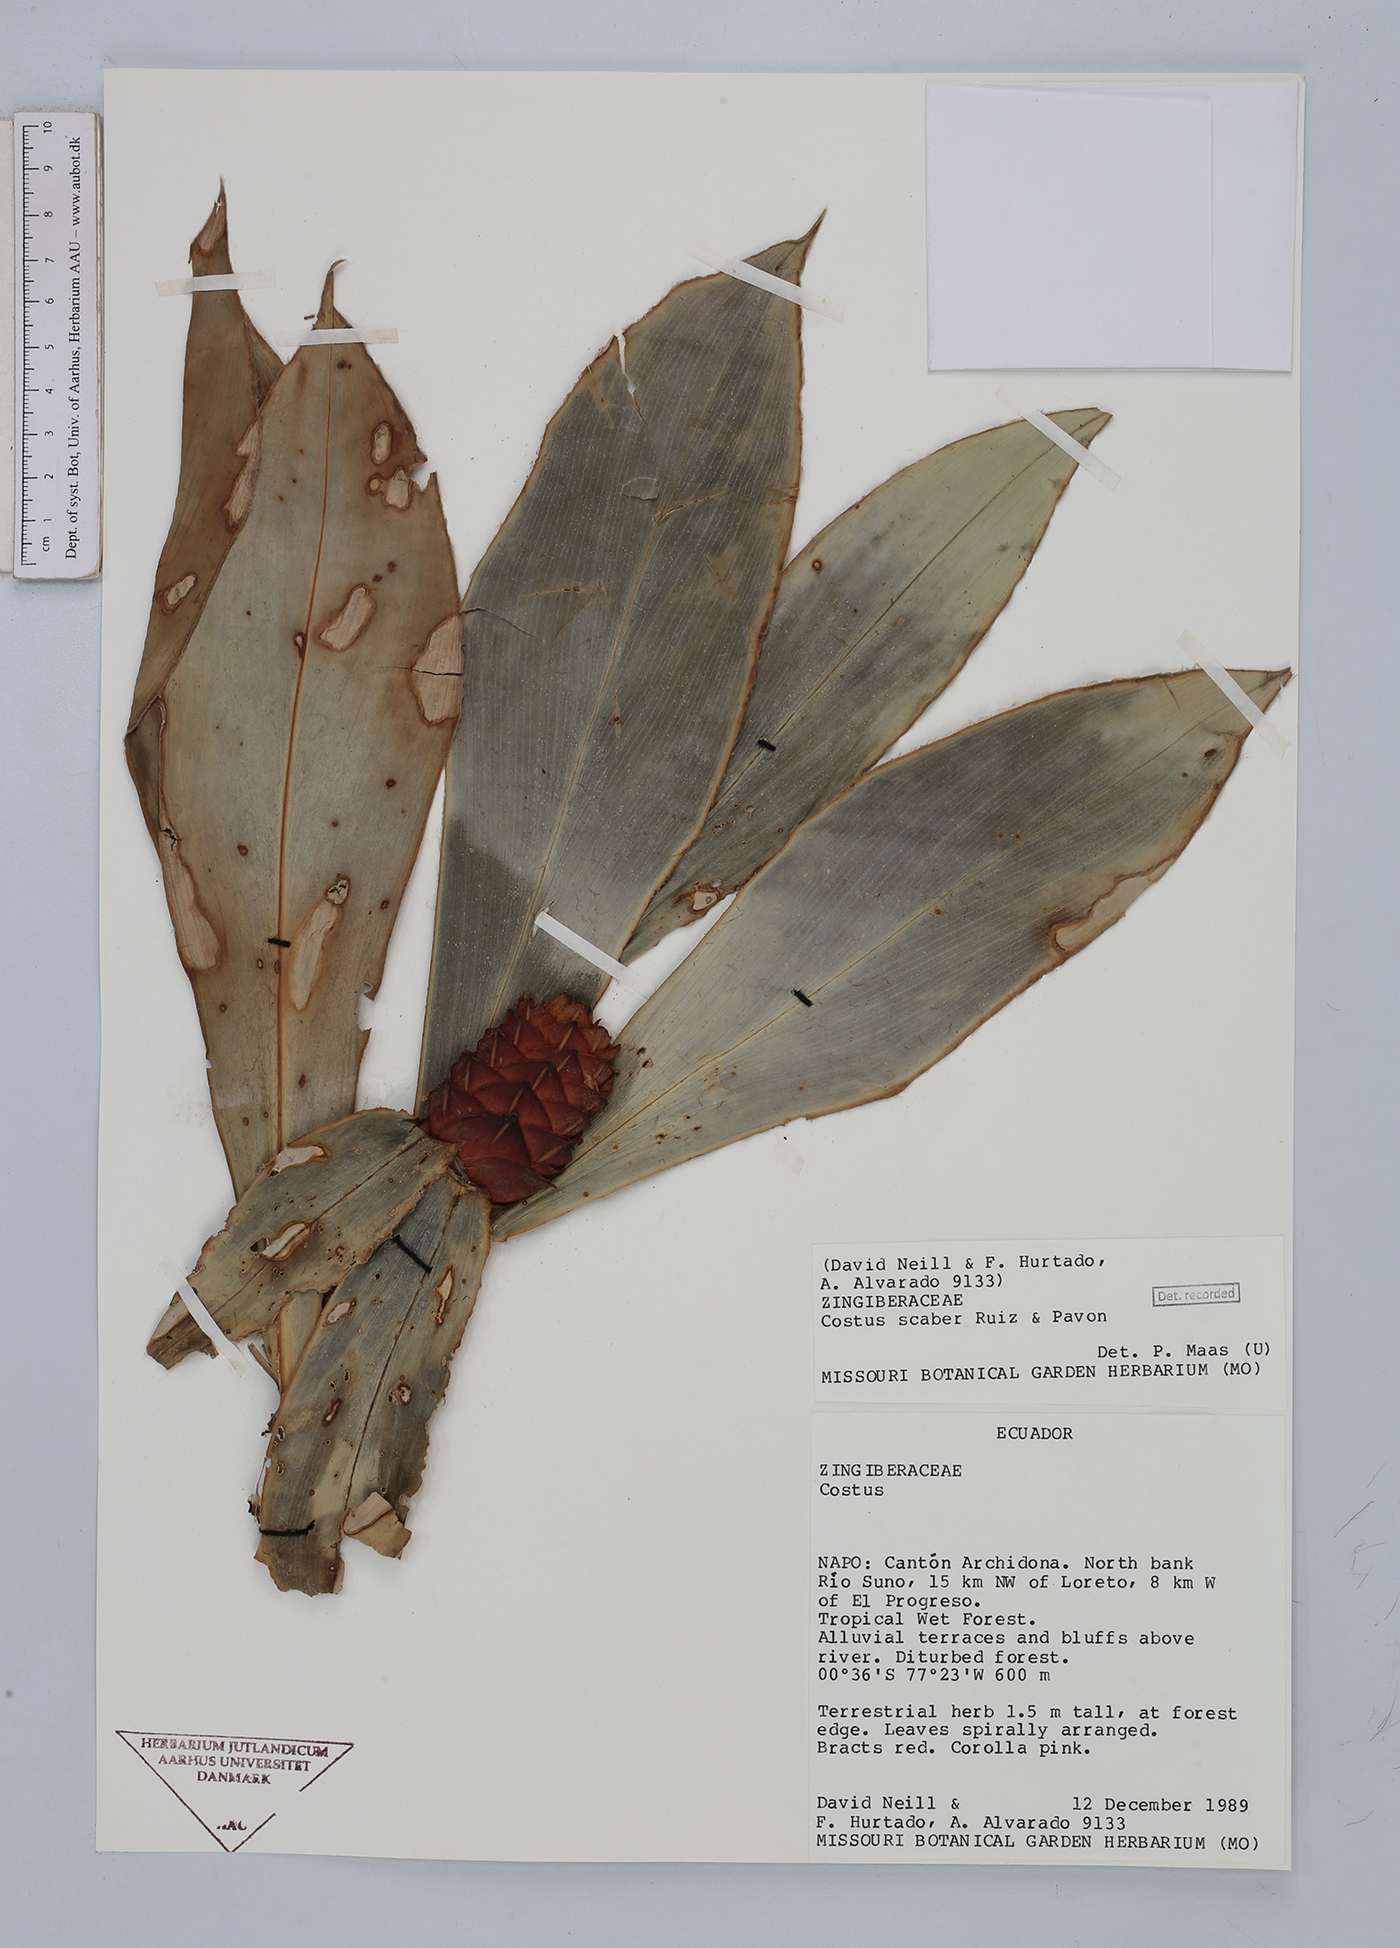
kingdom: Plantae
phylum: Tracheophyta
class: Liliopsida
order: Zingiberales
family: Costaceae
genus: Costus
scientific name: Costus scaber
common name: Spiral head ginger
